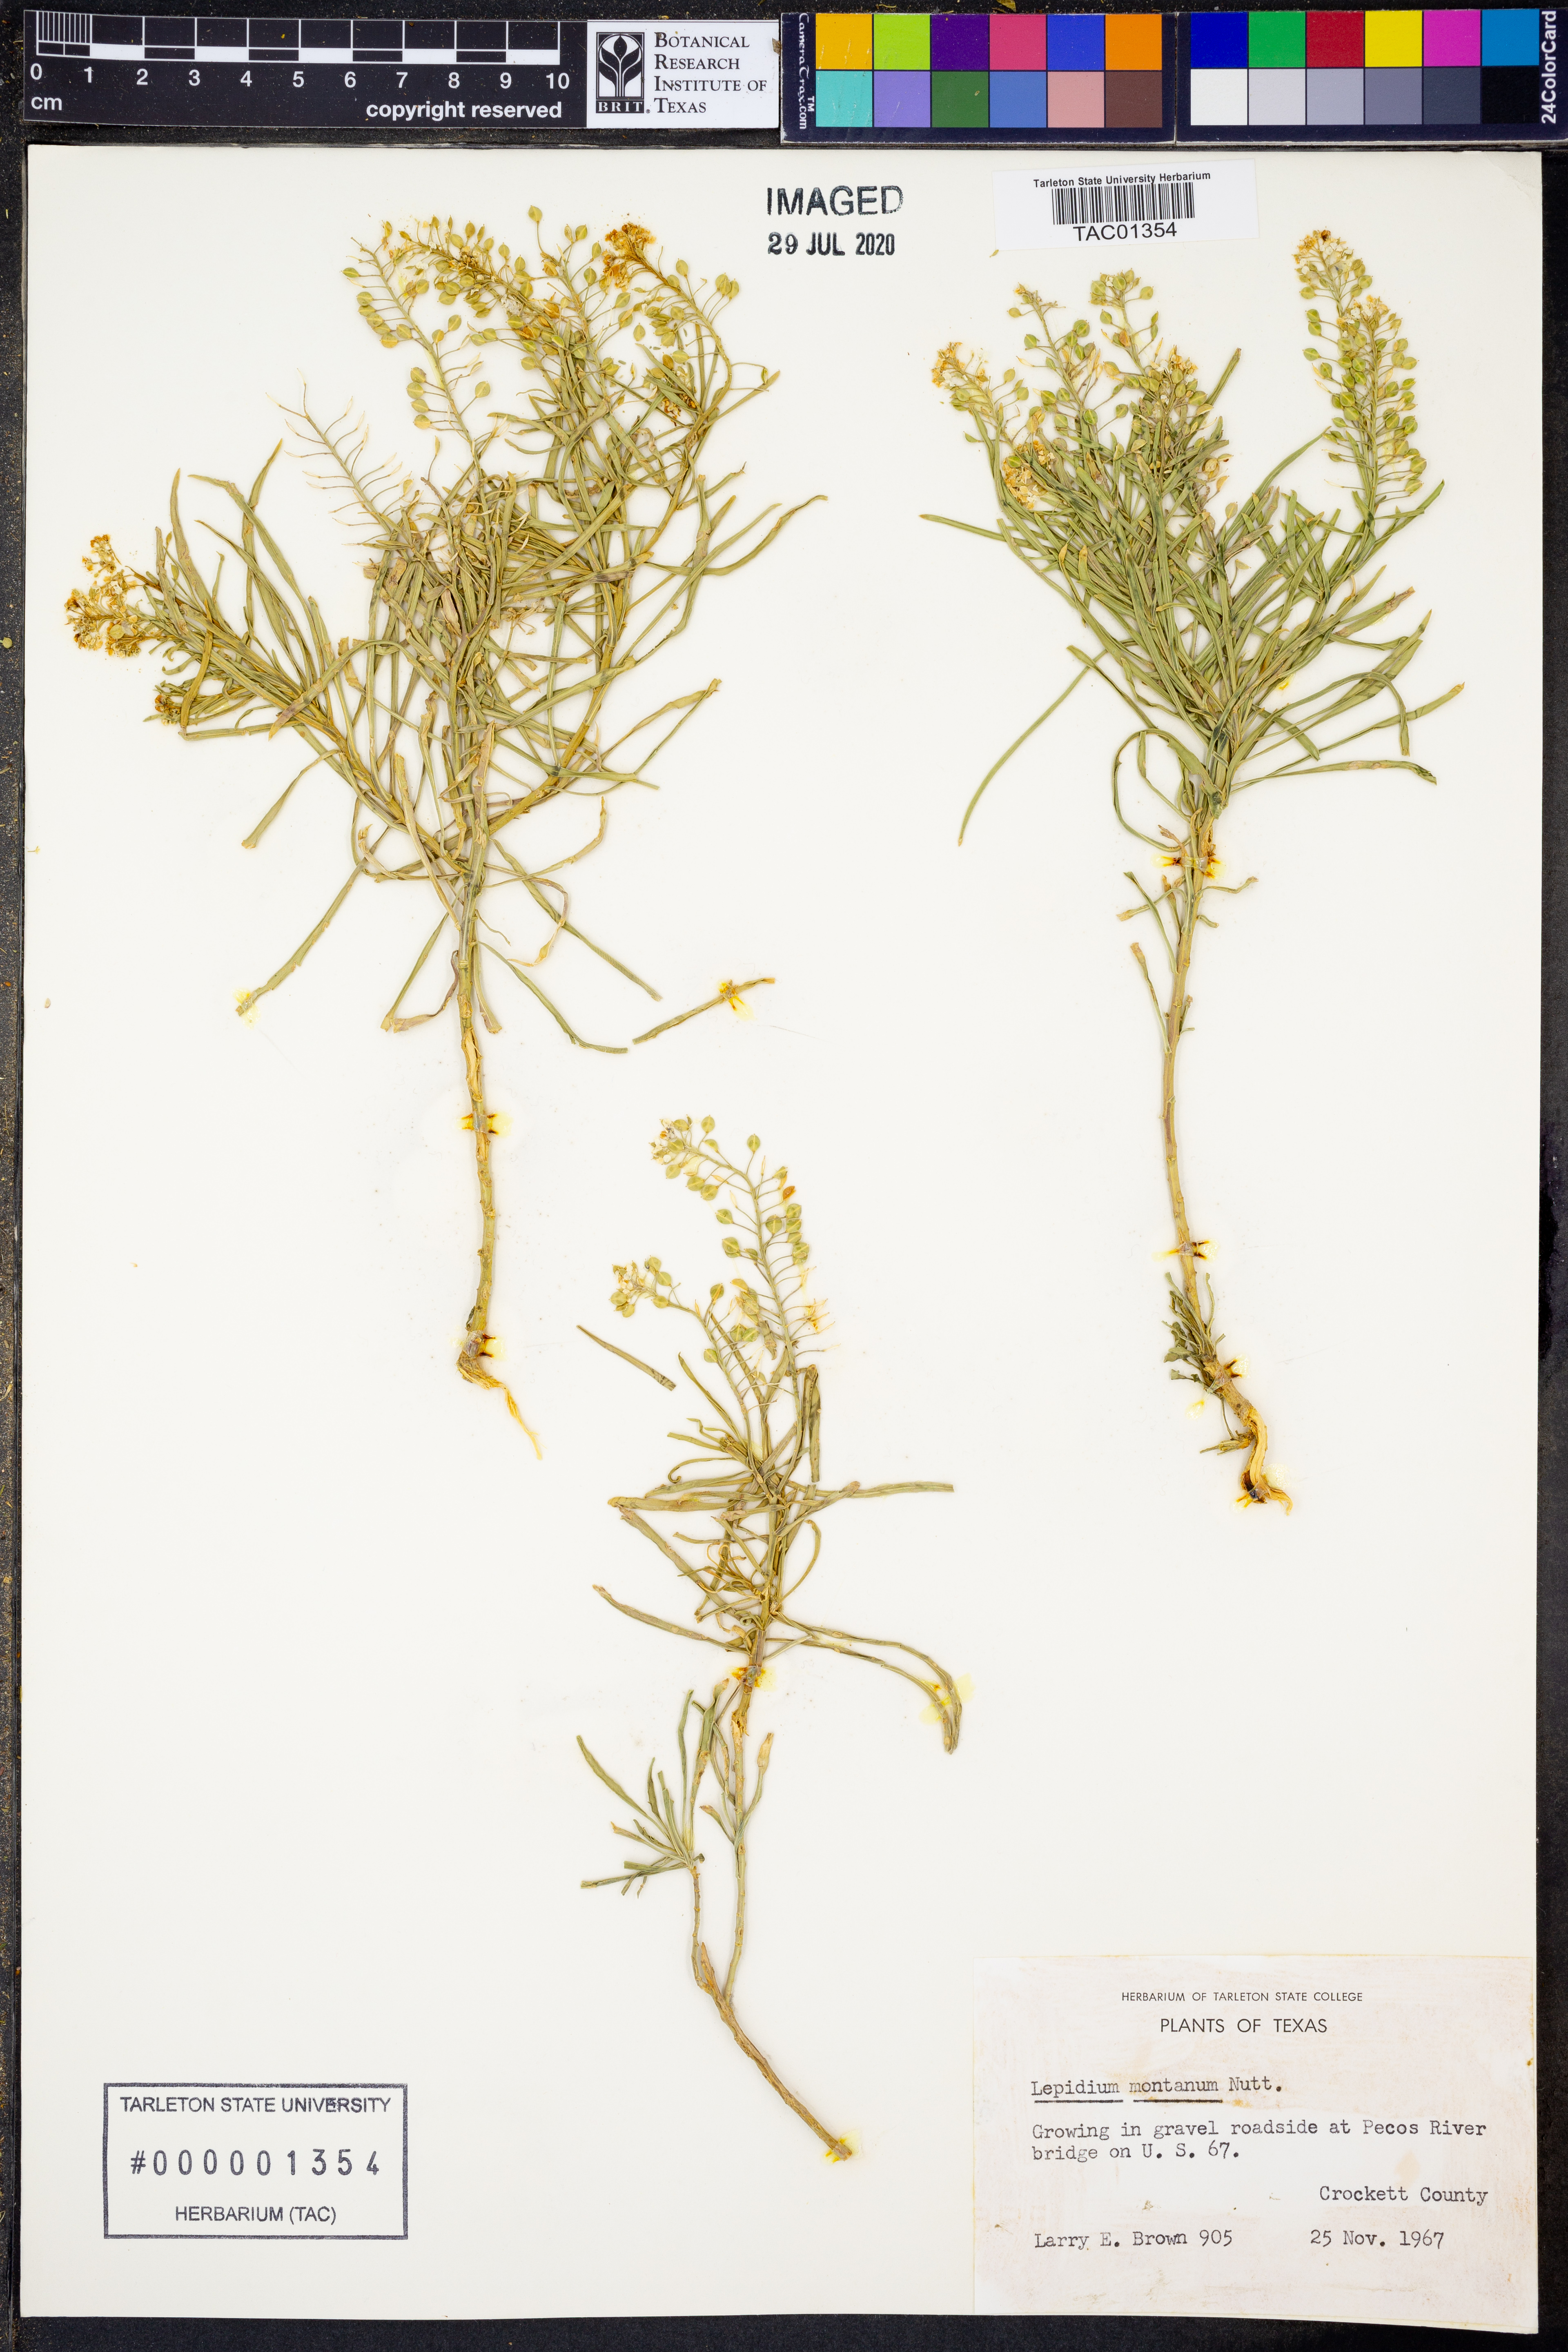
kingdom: Plantae
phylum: Tracheophyta
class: Magnoliopsida
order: Brassicales
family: Brassicaceae
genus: Lepidium
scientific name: Lepidium montanum
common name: Mountain pepperplant
